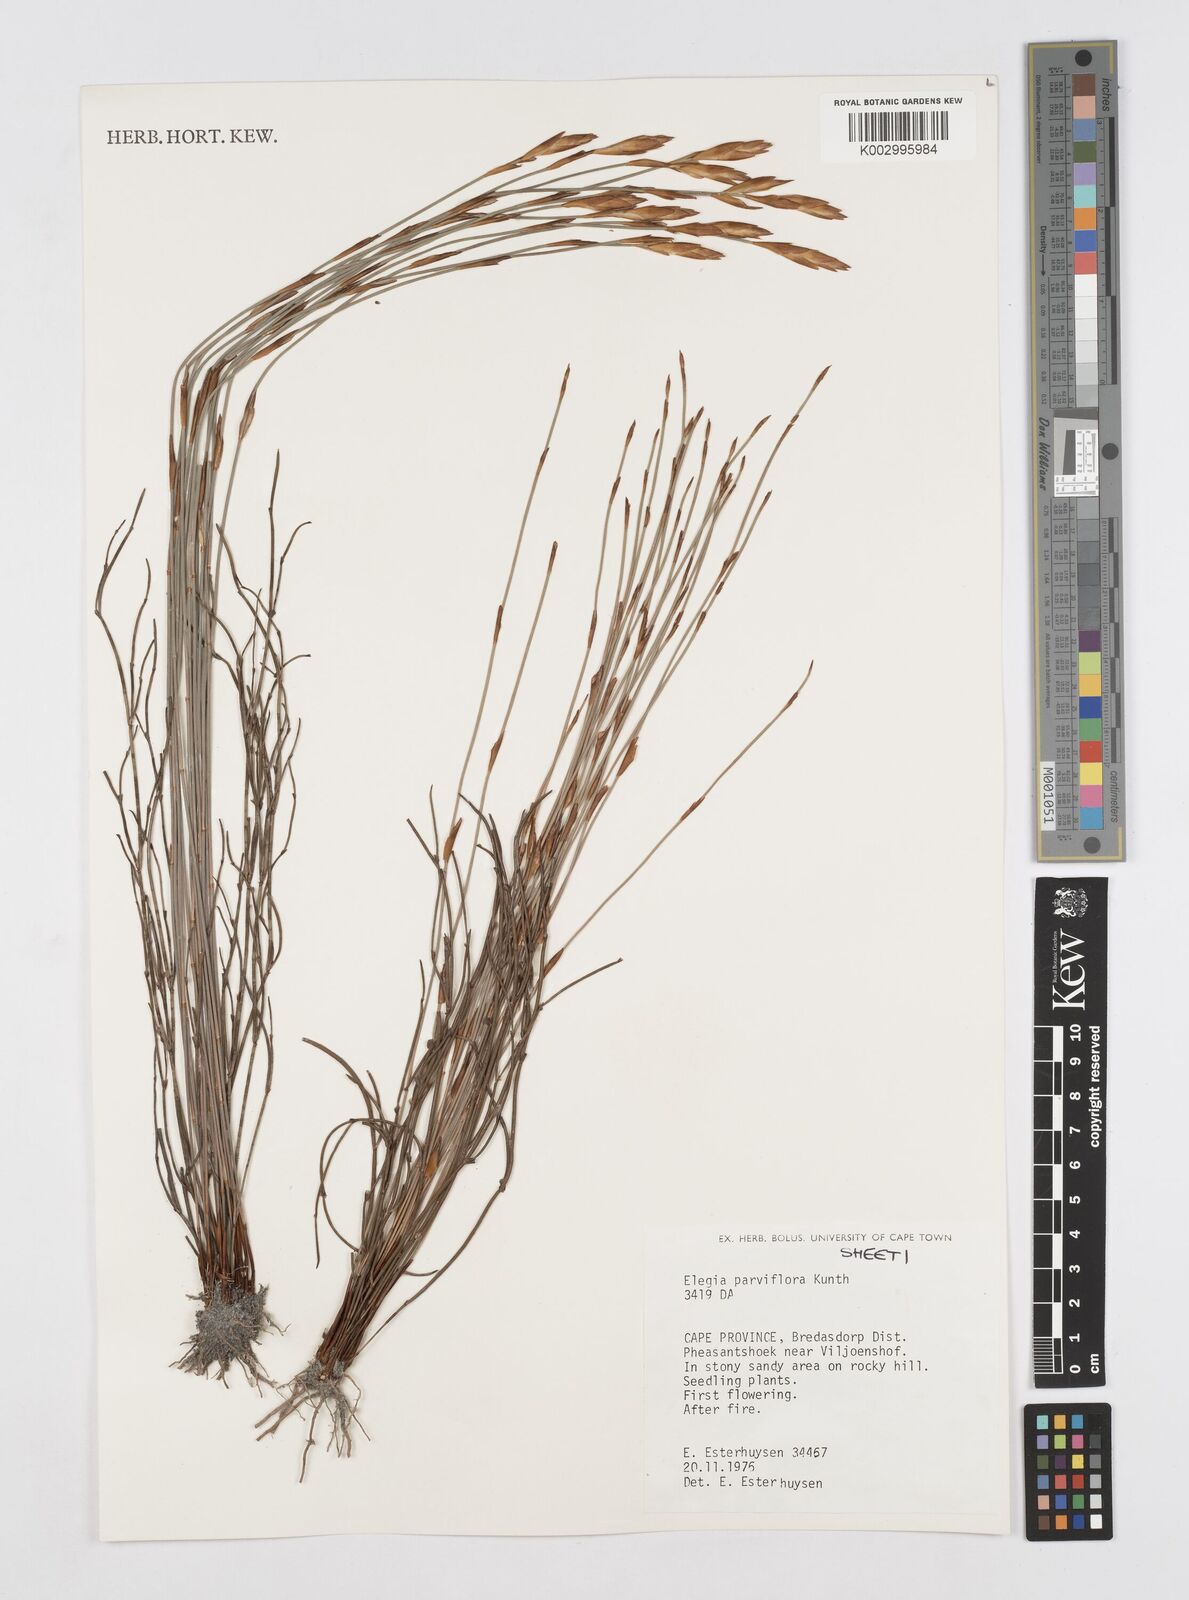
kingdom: Plantae
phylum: Tracheophyta
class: Liliopsida
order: Poales
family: Restionaceae
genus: Cannomois
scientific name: Cannomois parviflora
